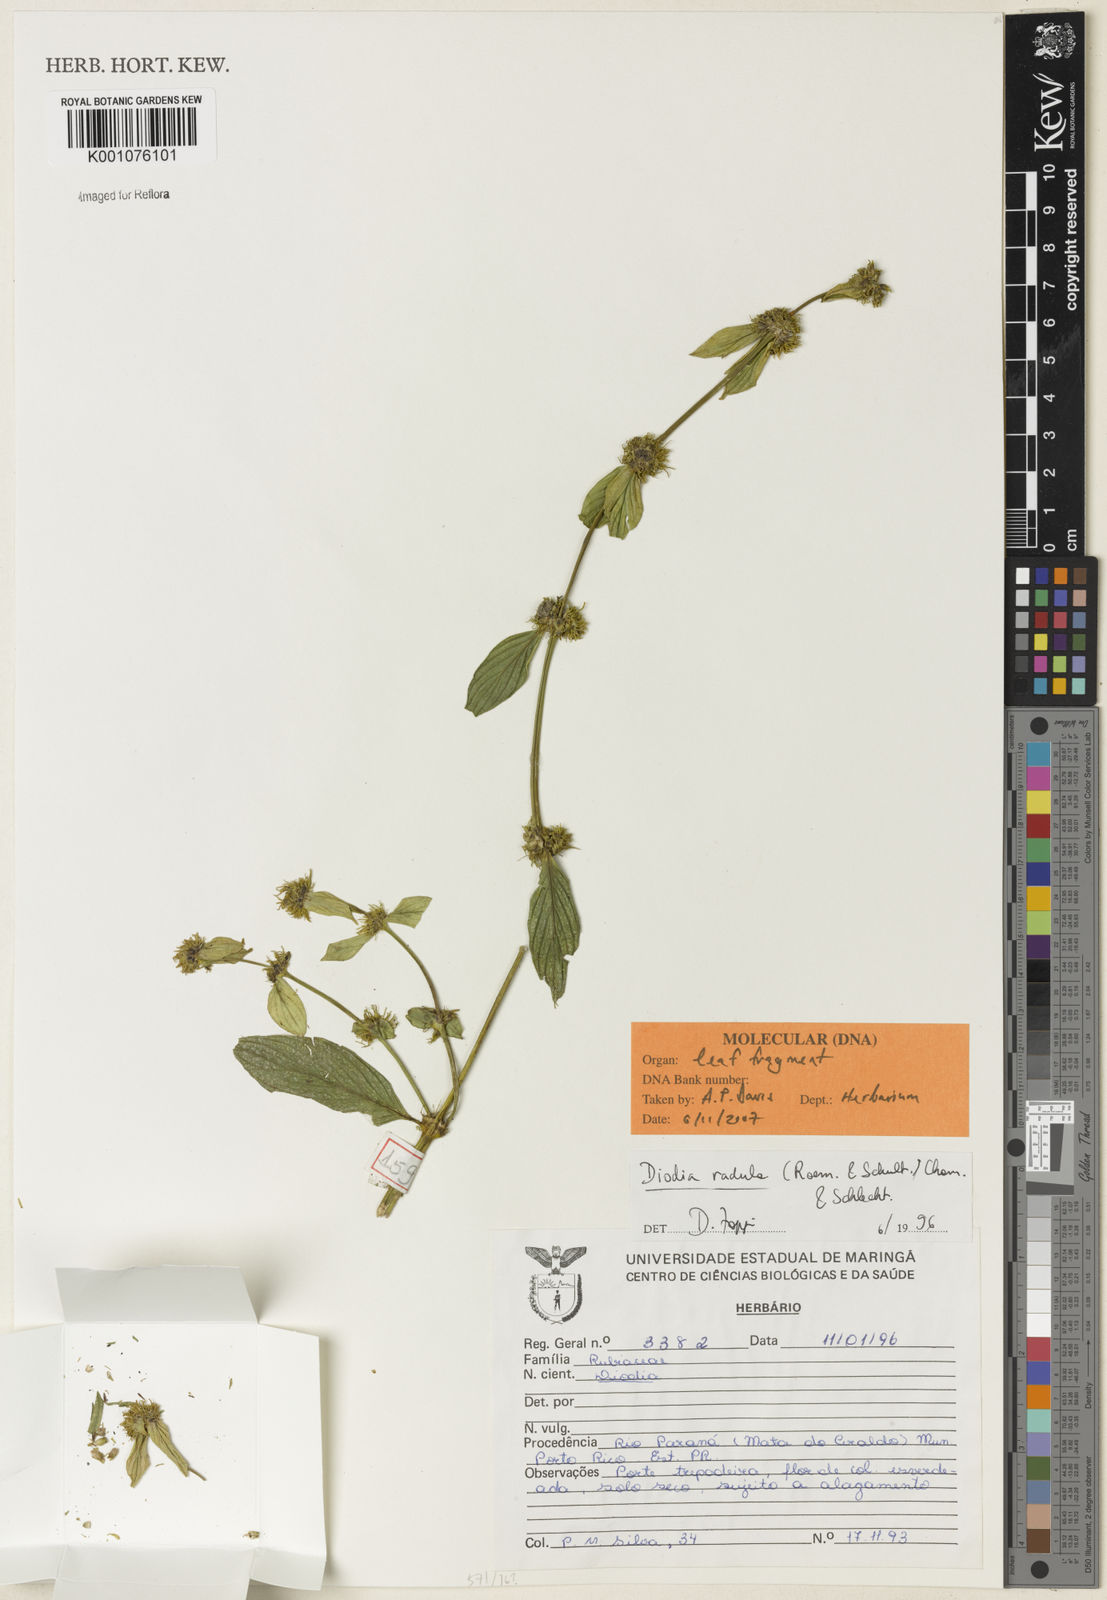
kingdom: Plantae
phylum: Tracheophyta
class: Magnoliopsida
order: Gentianales
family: Rubiaceae
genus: Hexasepalum
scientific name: Hexasepalum radulum
